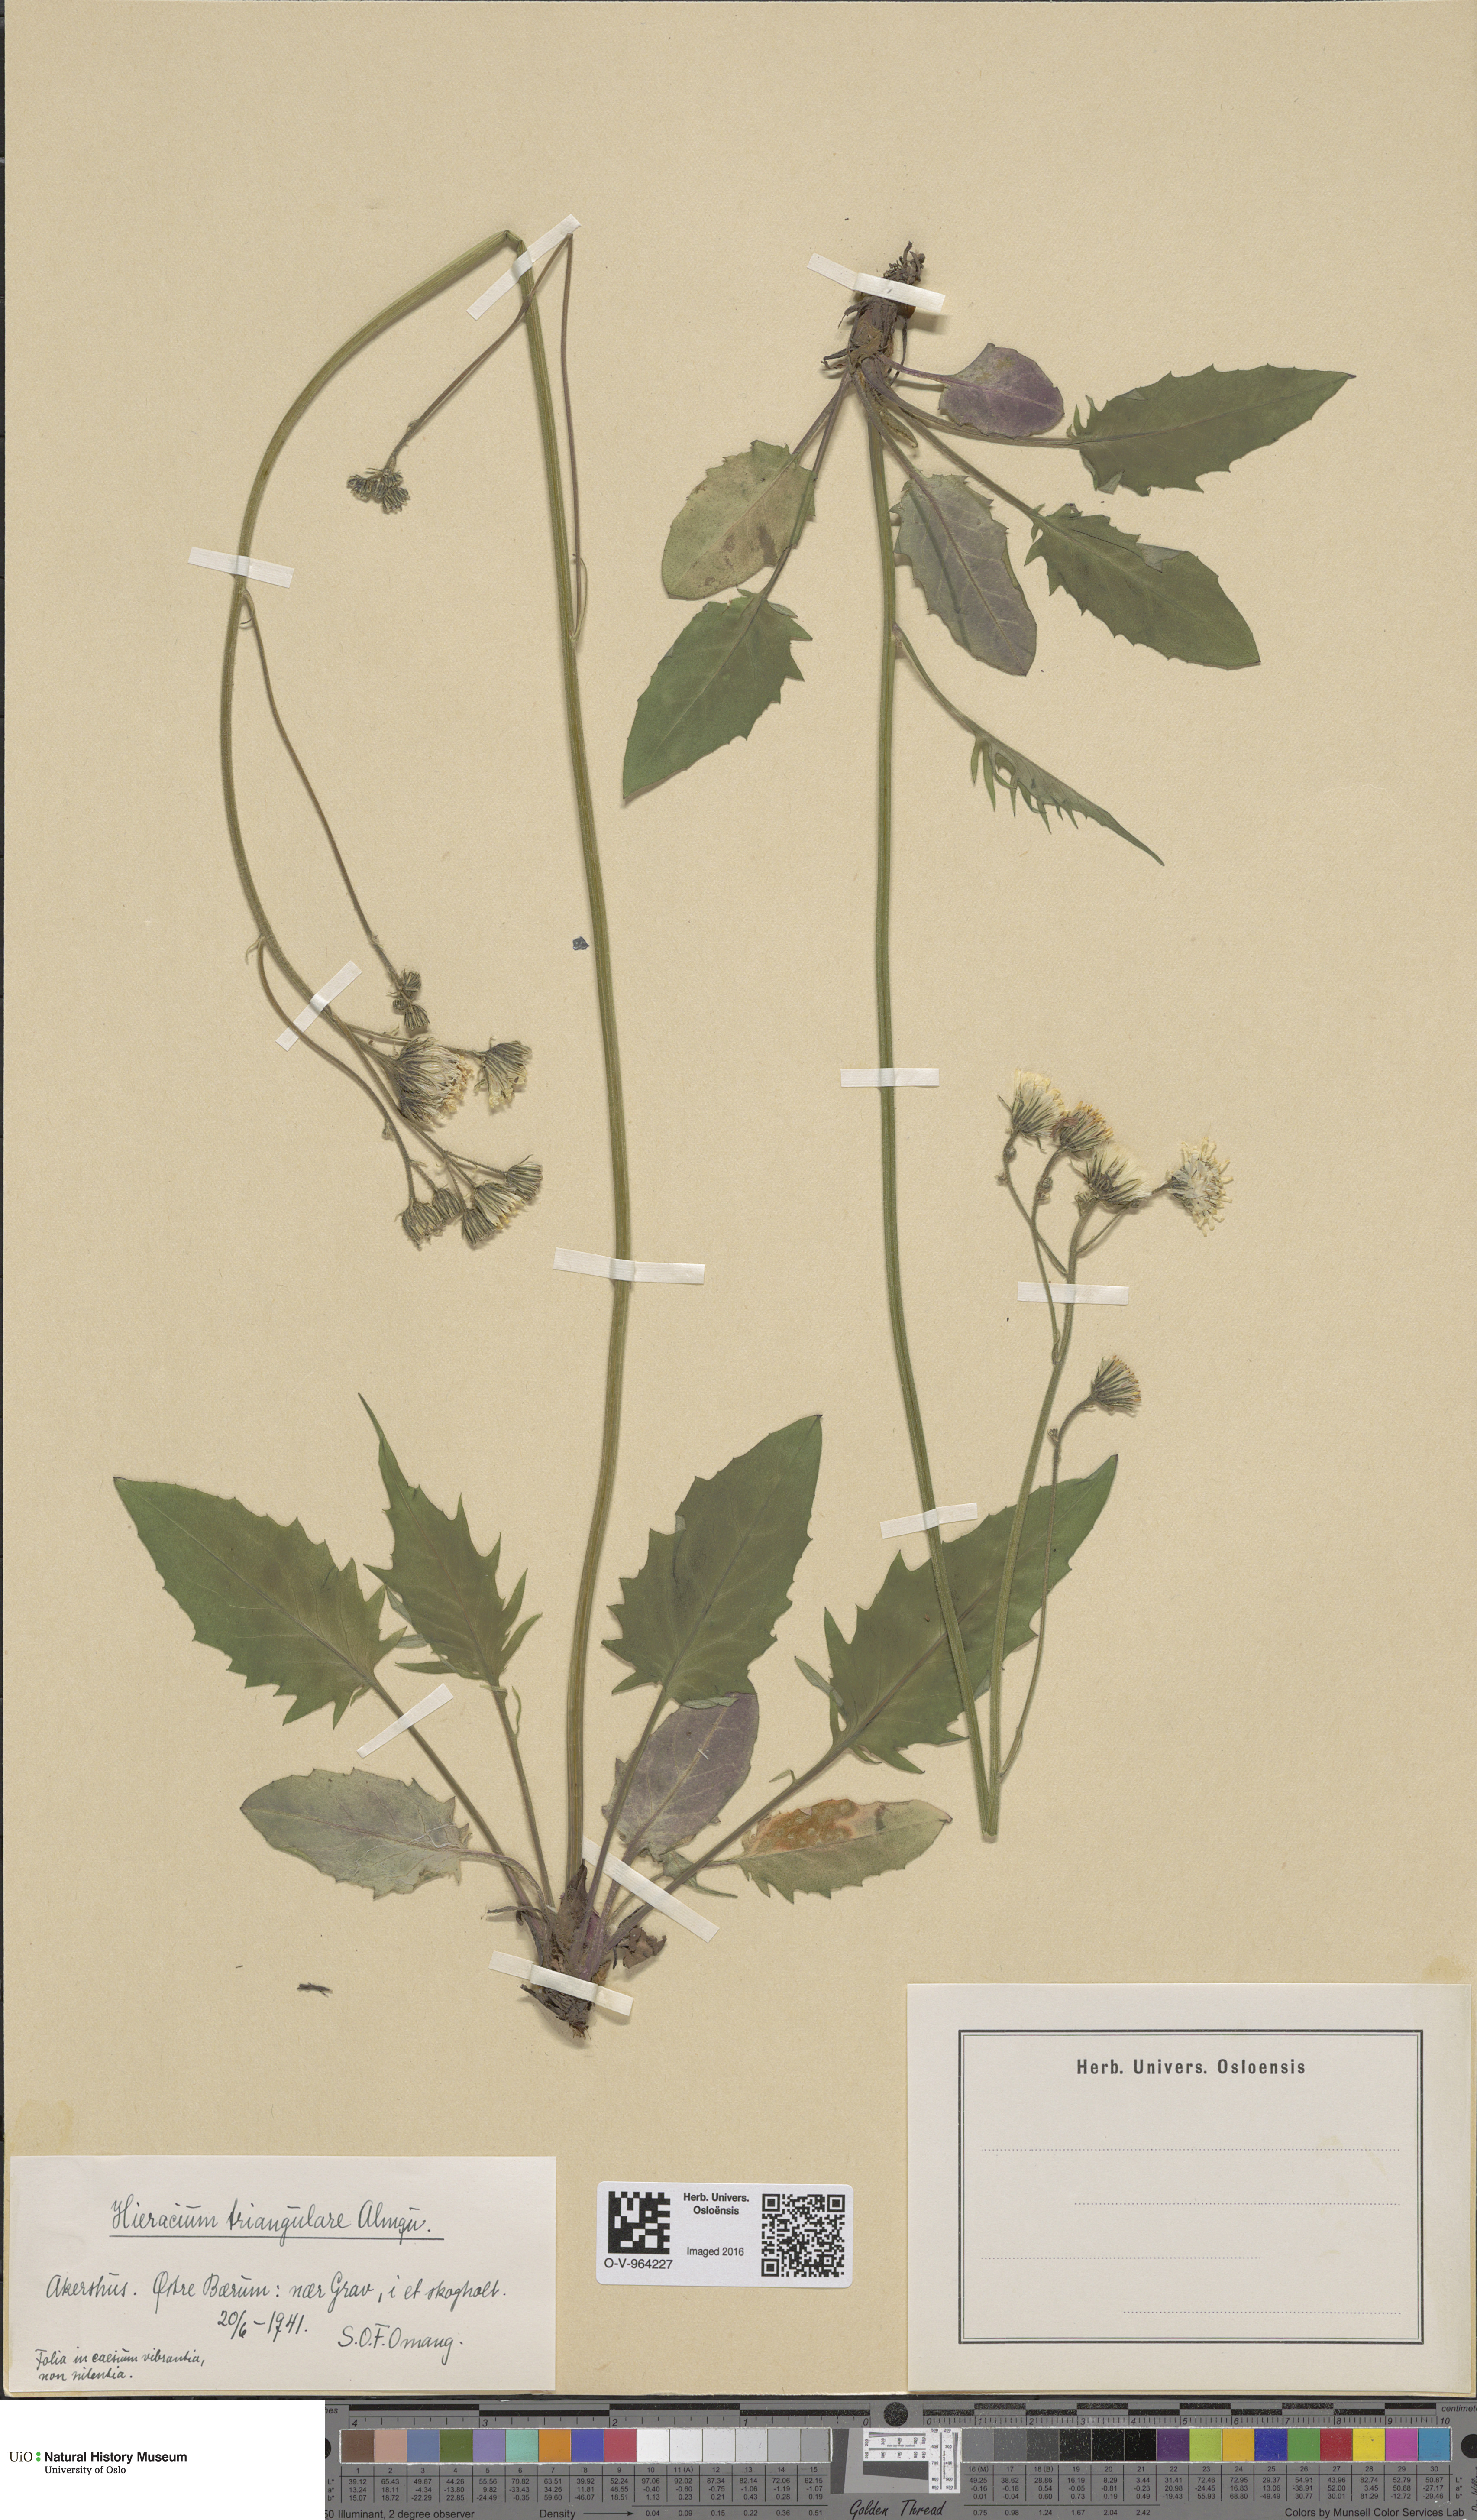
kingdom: Plantae
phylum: Tracheophyta
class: Magnoliopsida
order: Asterales
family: Asteraceae
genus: Hieracium
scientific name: Hieracium triangulare
